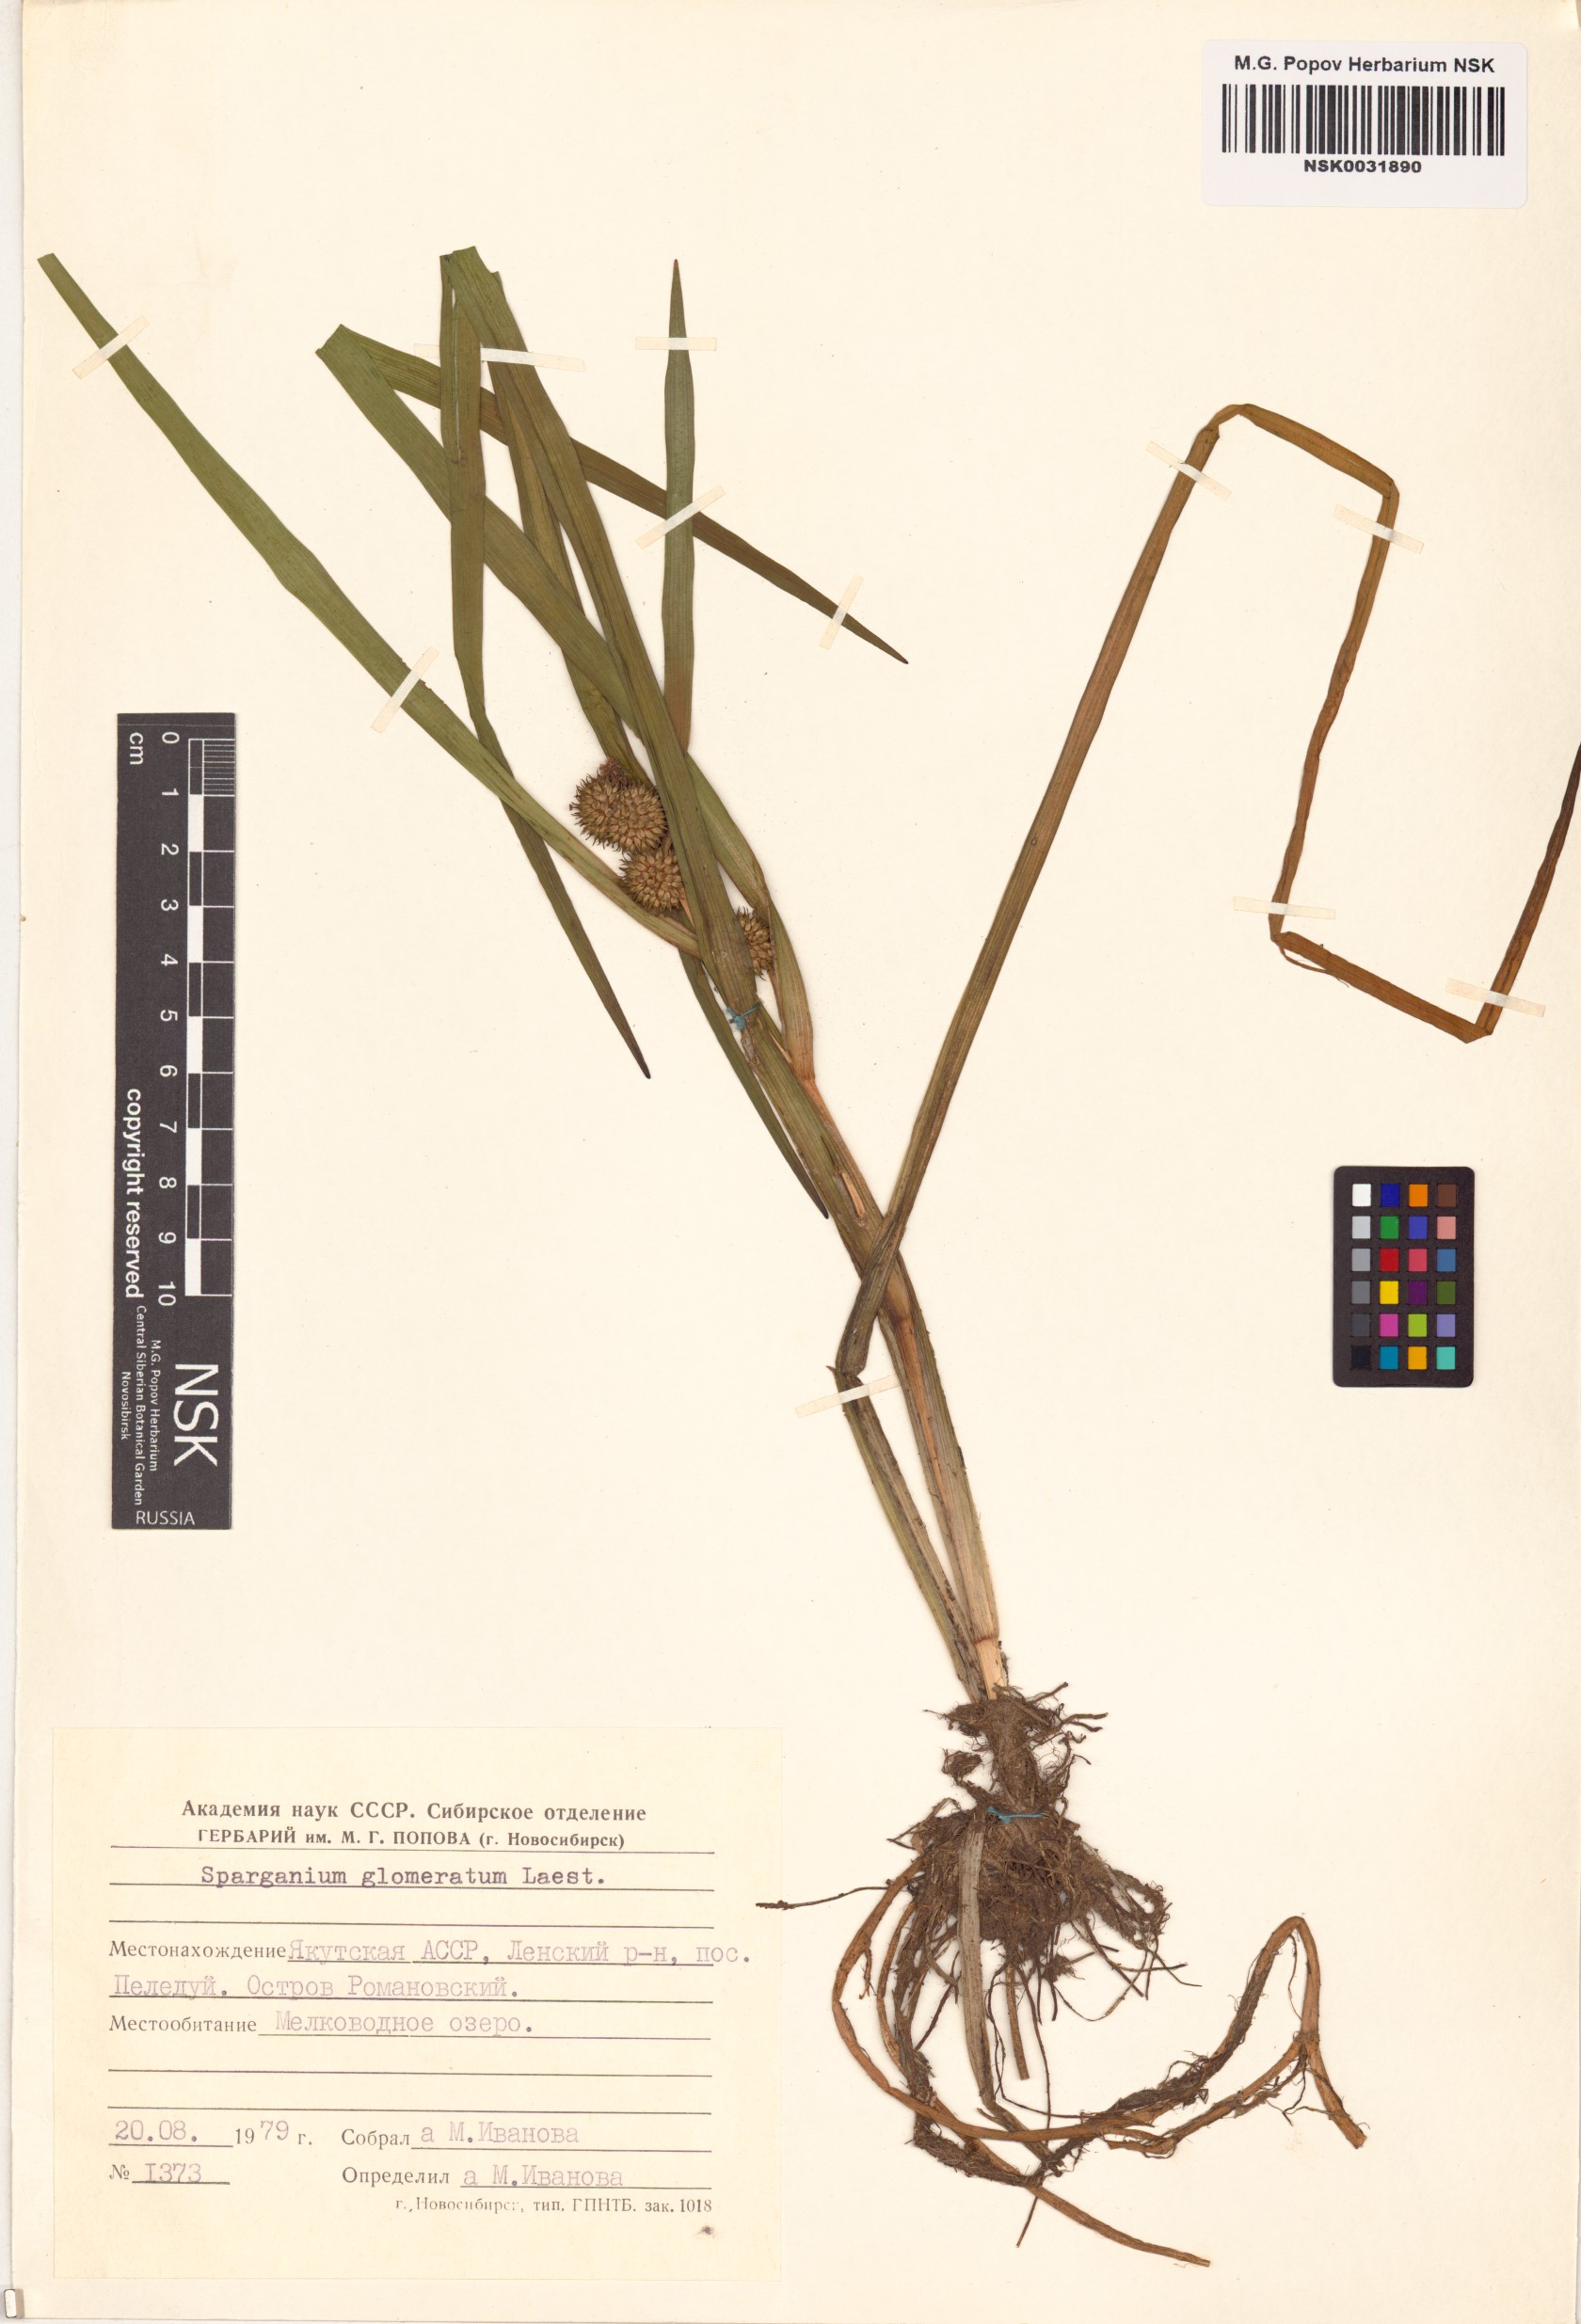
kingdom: Plantae
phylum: Tracheophyta
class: Liliopsida
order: Poales
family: Typhaceae
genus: Sparganium
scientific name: Sparganium glomeratum
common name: Clustered burreed
